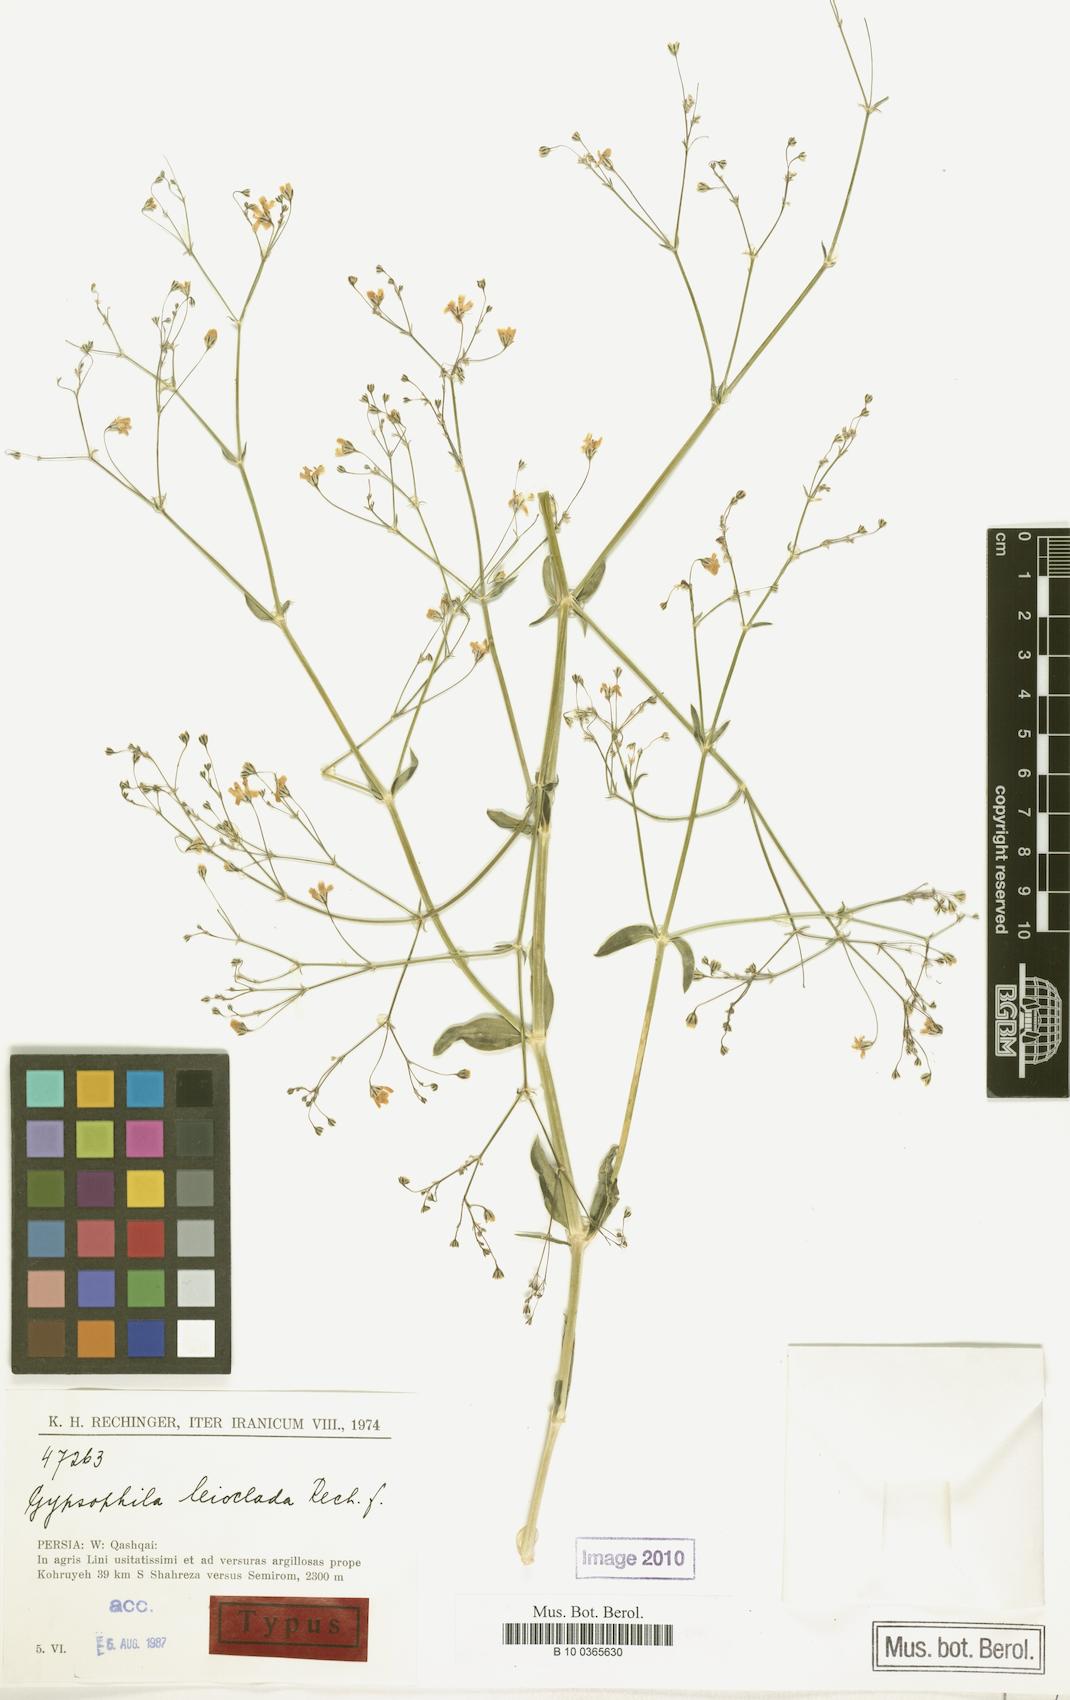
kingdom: Plantae
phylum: Tracheophyta
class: Magnoliopsida
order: Caryophyllales
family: Caryophyllaceae
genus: Gypsophila
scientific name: Gypsophila polyclada
